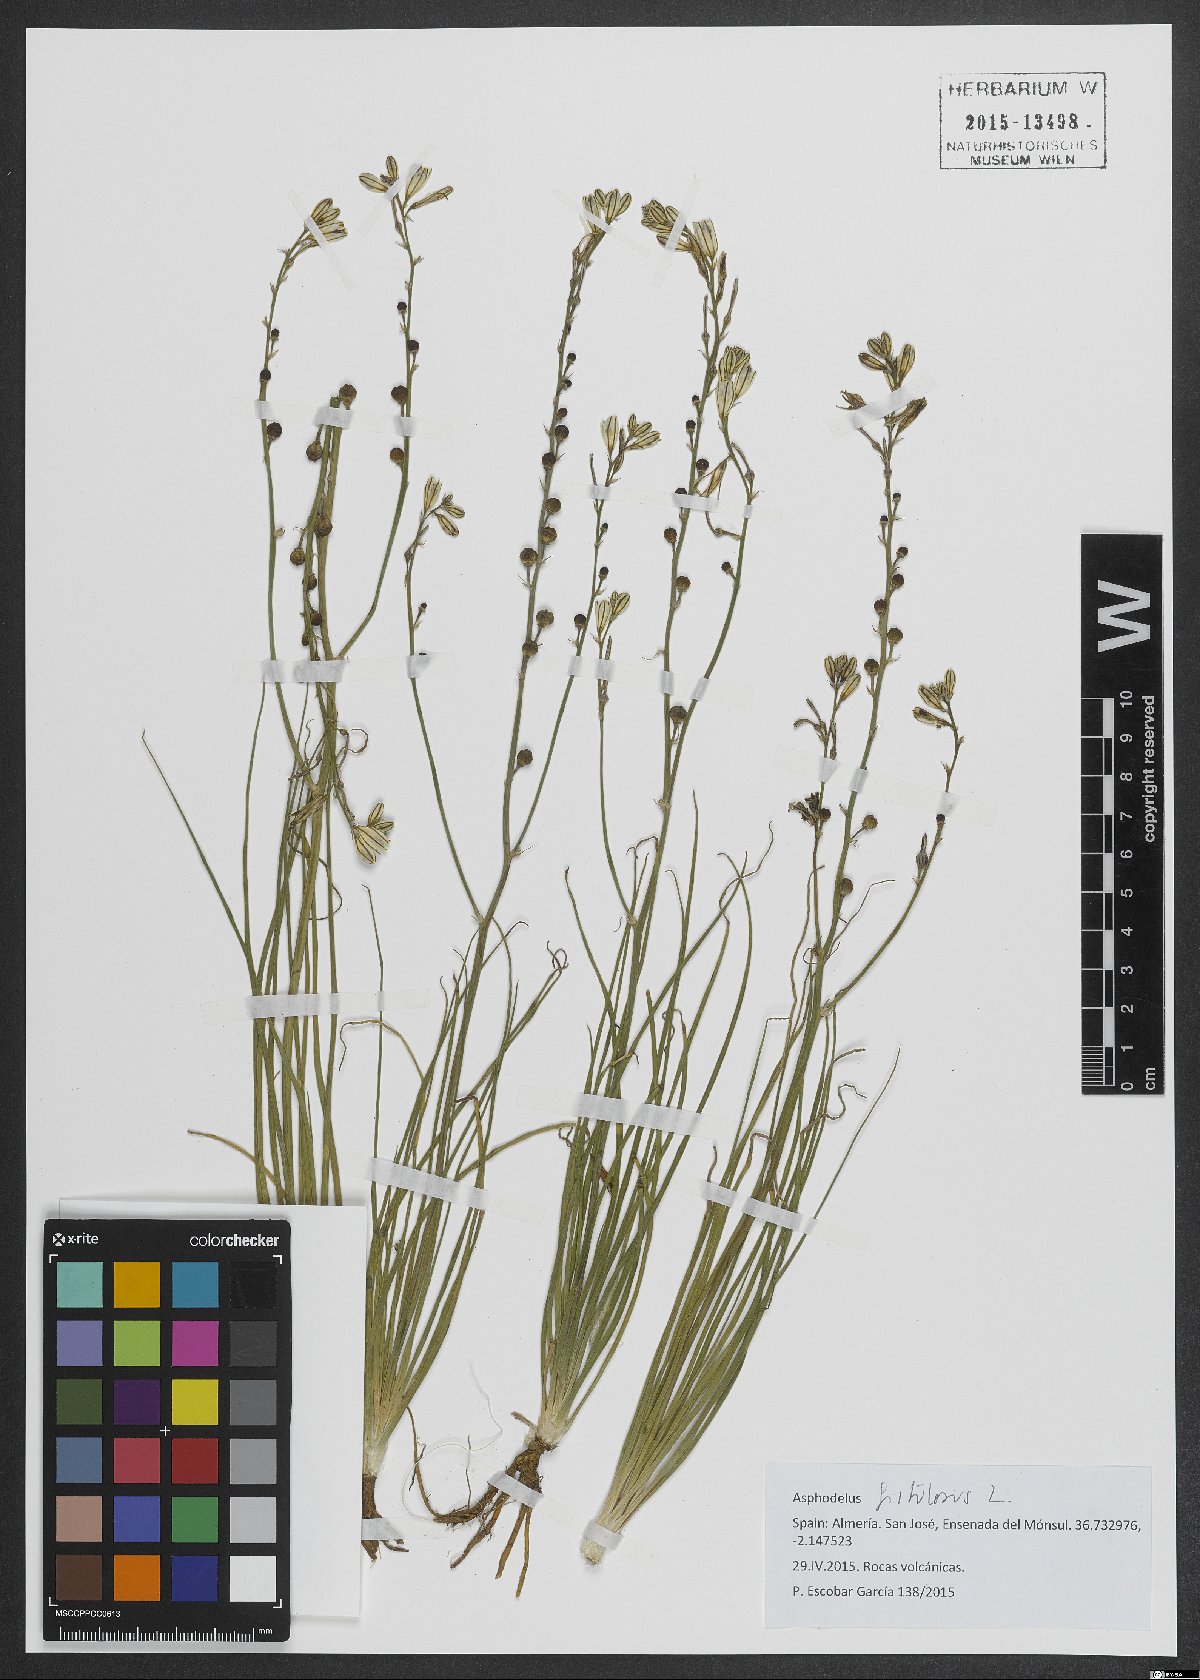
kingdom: Plantae
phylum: Tracheophyta
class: Liliopsida
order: Asparagales
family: Asphodelaceae
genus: Asphodelus
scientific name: Asphodelus fistulosus
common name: Onionweed
